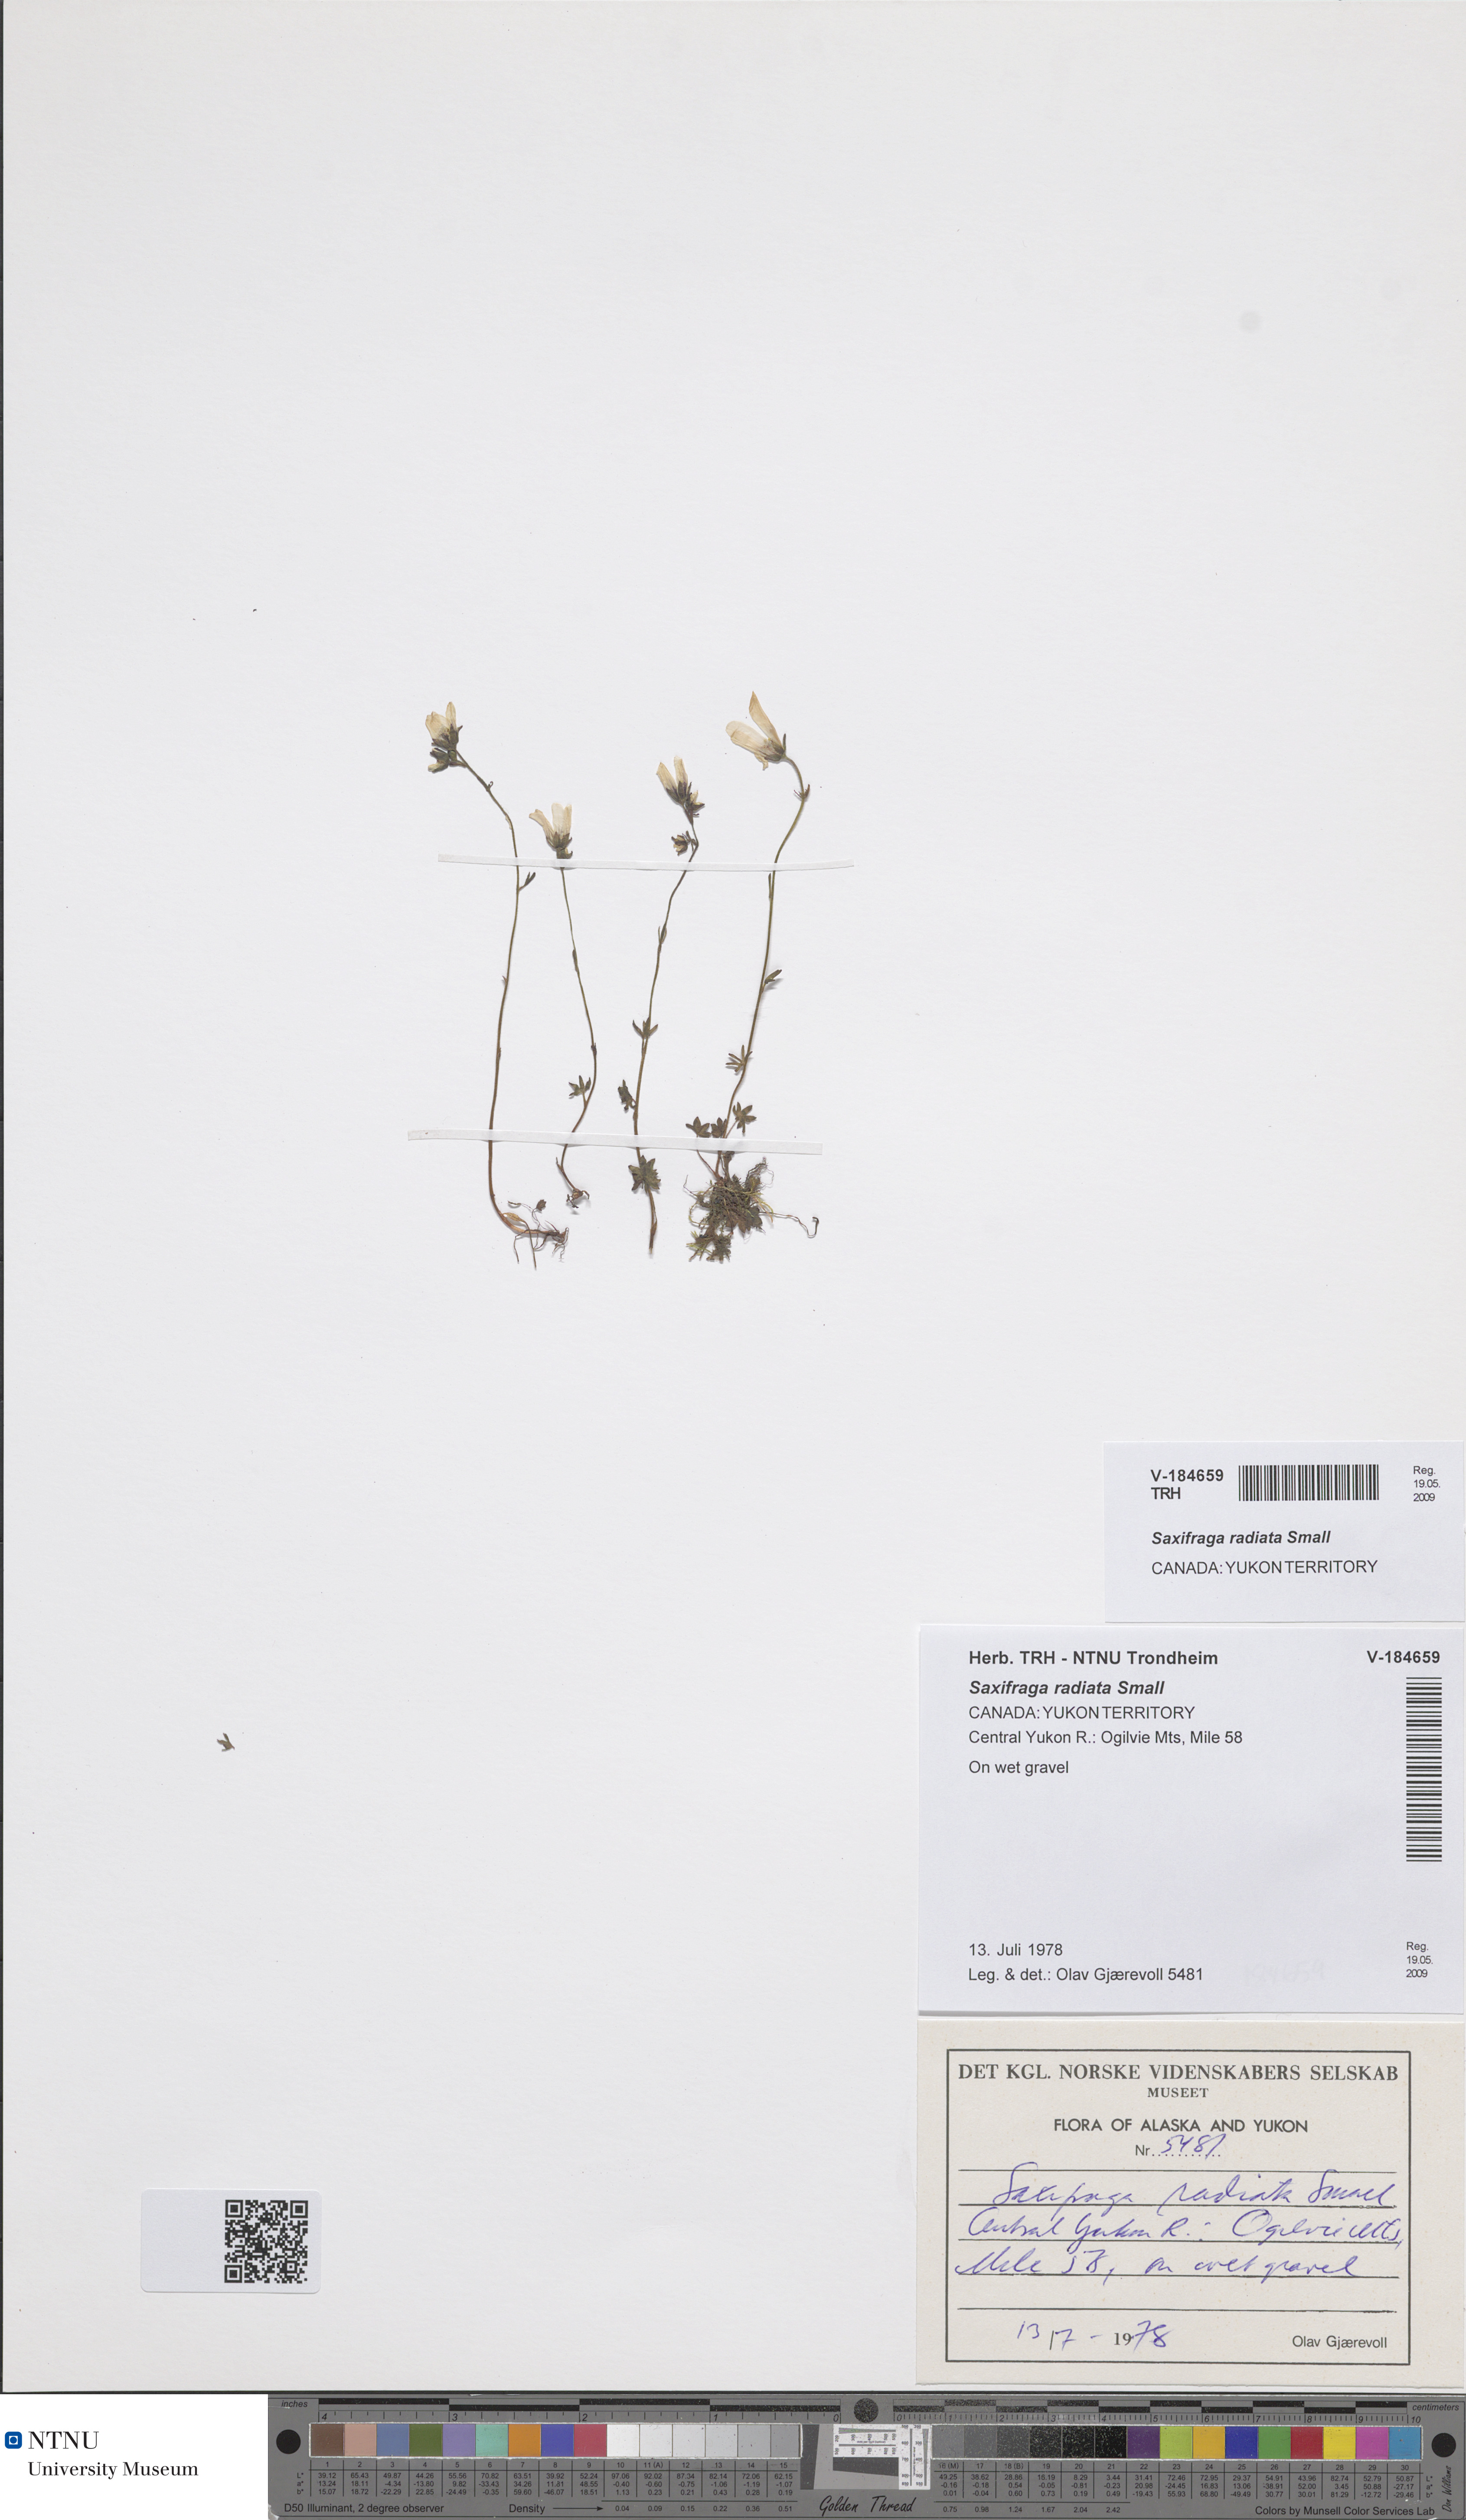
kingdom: Plantae
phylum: Tracheophyta
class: Magnoliopsida
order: Saxifragales
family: Saxifragaceae
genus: Saxifraga
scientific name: Saxifraga sibirica
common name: Siberian saxifrage
